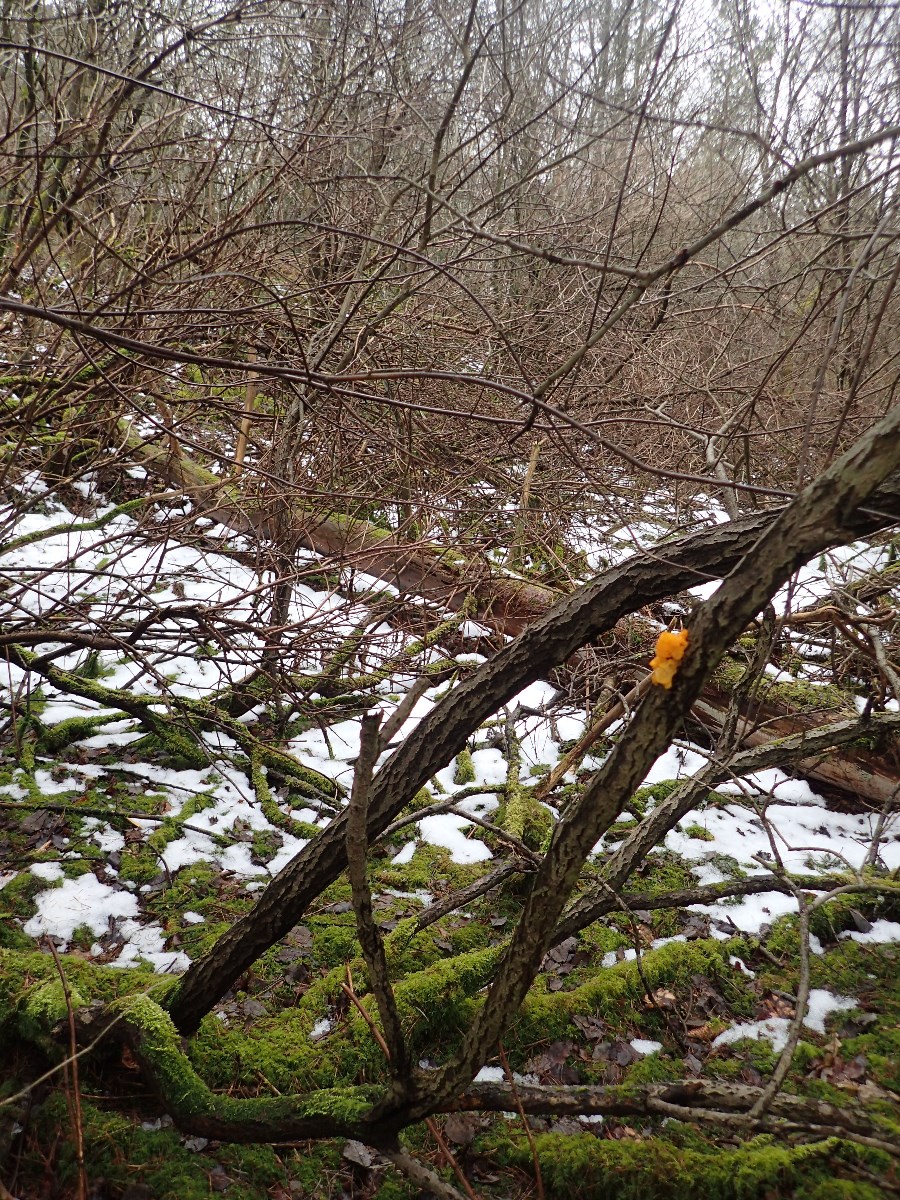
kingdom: Fungi
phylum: Basidiomycota
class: Tremellomycetes
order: Tremellales
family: Tremellaceae
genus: Tremella
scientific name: Tremella mesenterica
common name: gul bævresvamp
